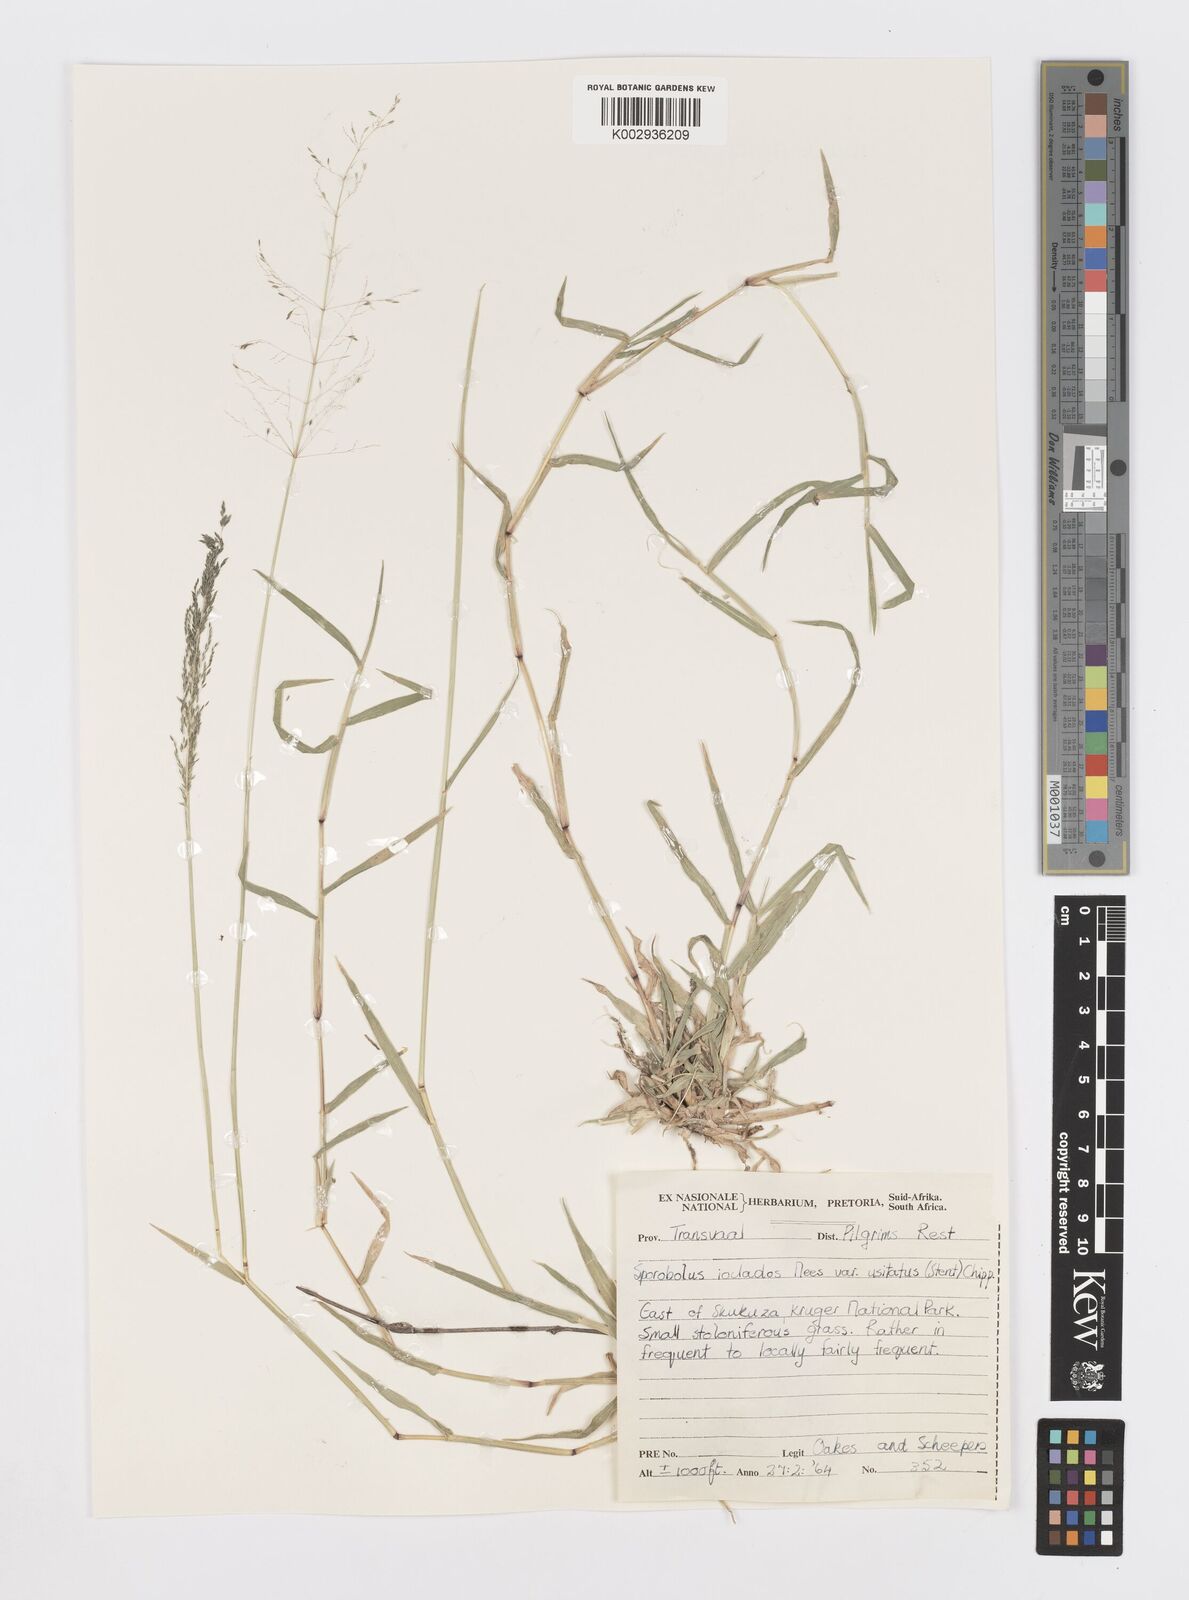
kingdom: Plantae
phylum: Tracheophyta
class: Liliopsida
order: Poales
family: Poaceae
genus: Sporobolus
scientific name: Sporobolus ioclados
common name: Pan dropseed
